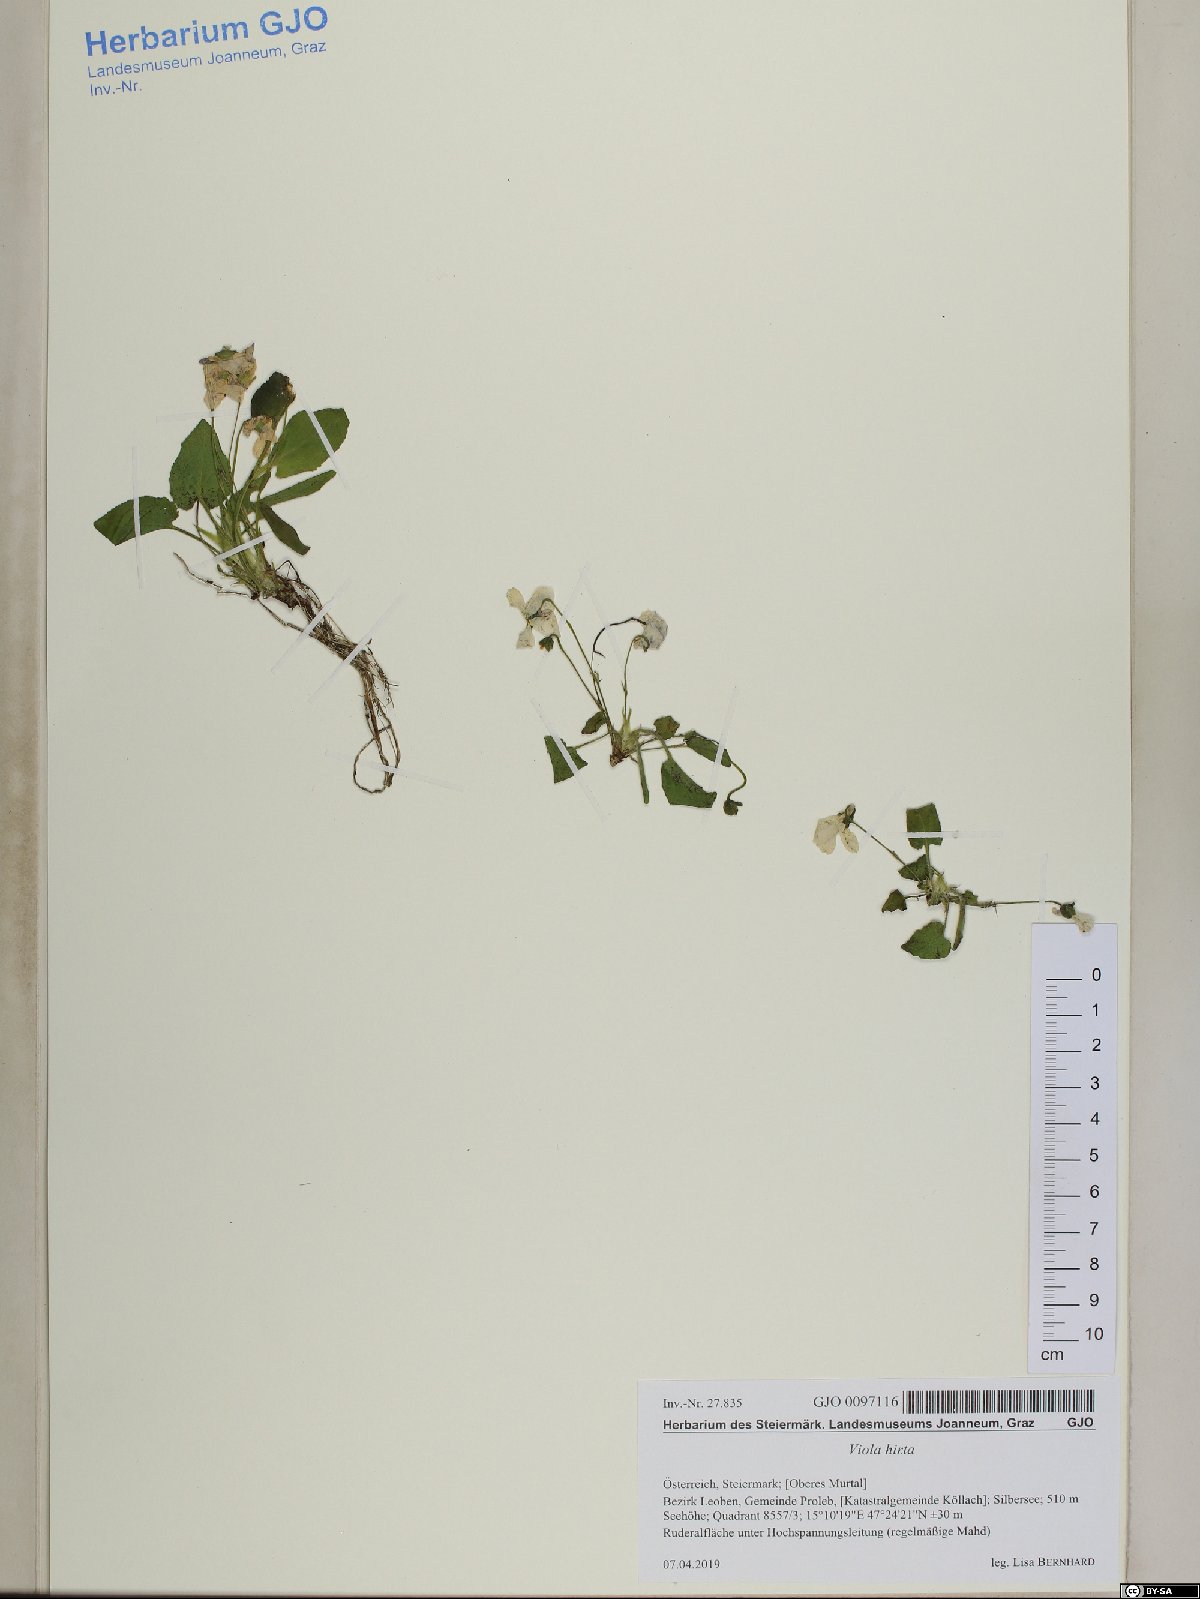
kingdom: Plantae
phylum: Tracheophyta
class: Magnoliopsida
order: Malpighiales
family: Violaceae
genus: Viola
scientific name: Viola hirta
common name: Hairy violet
